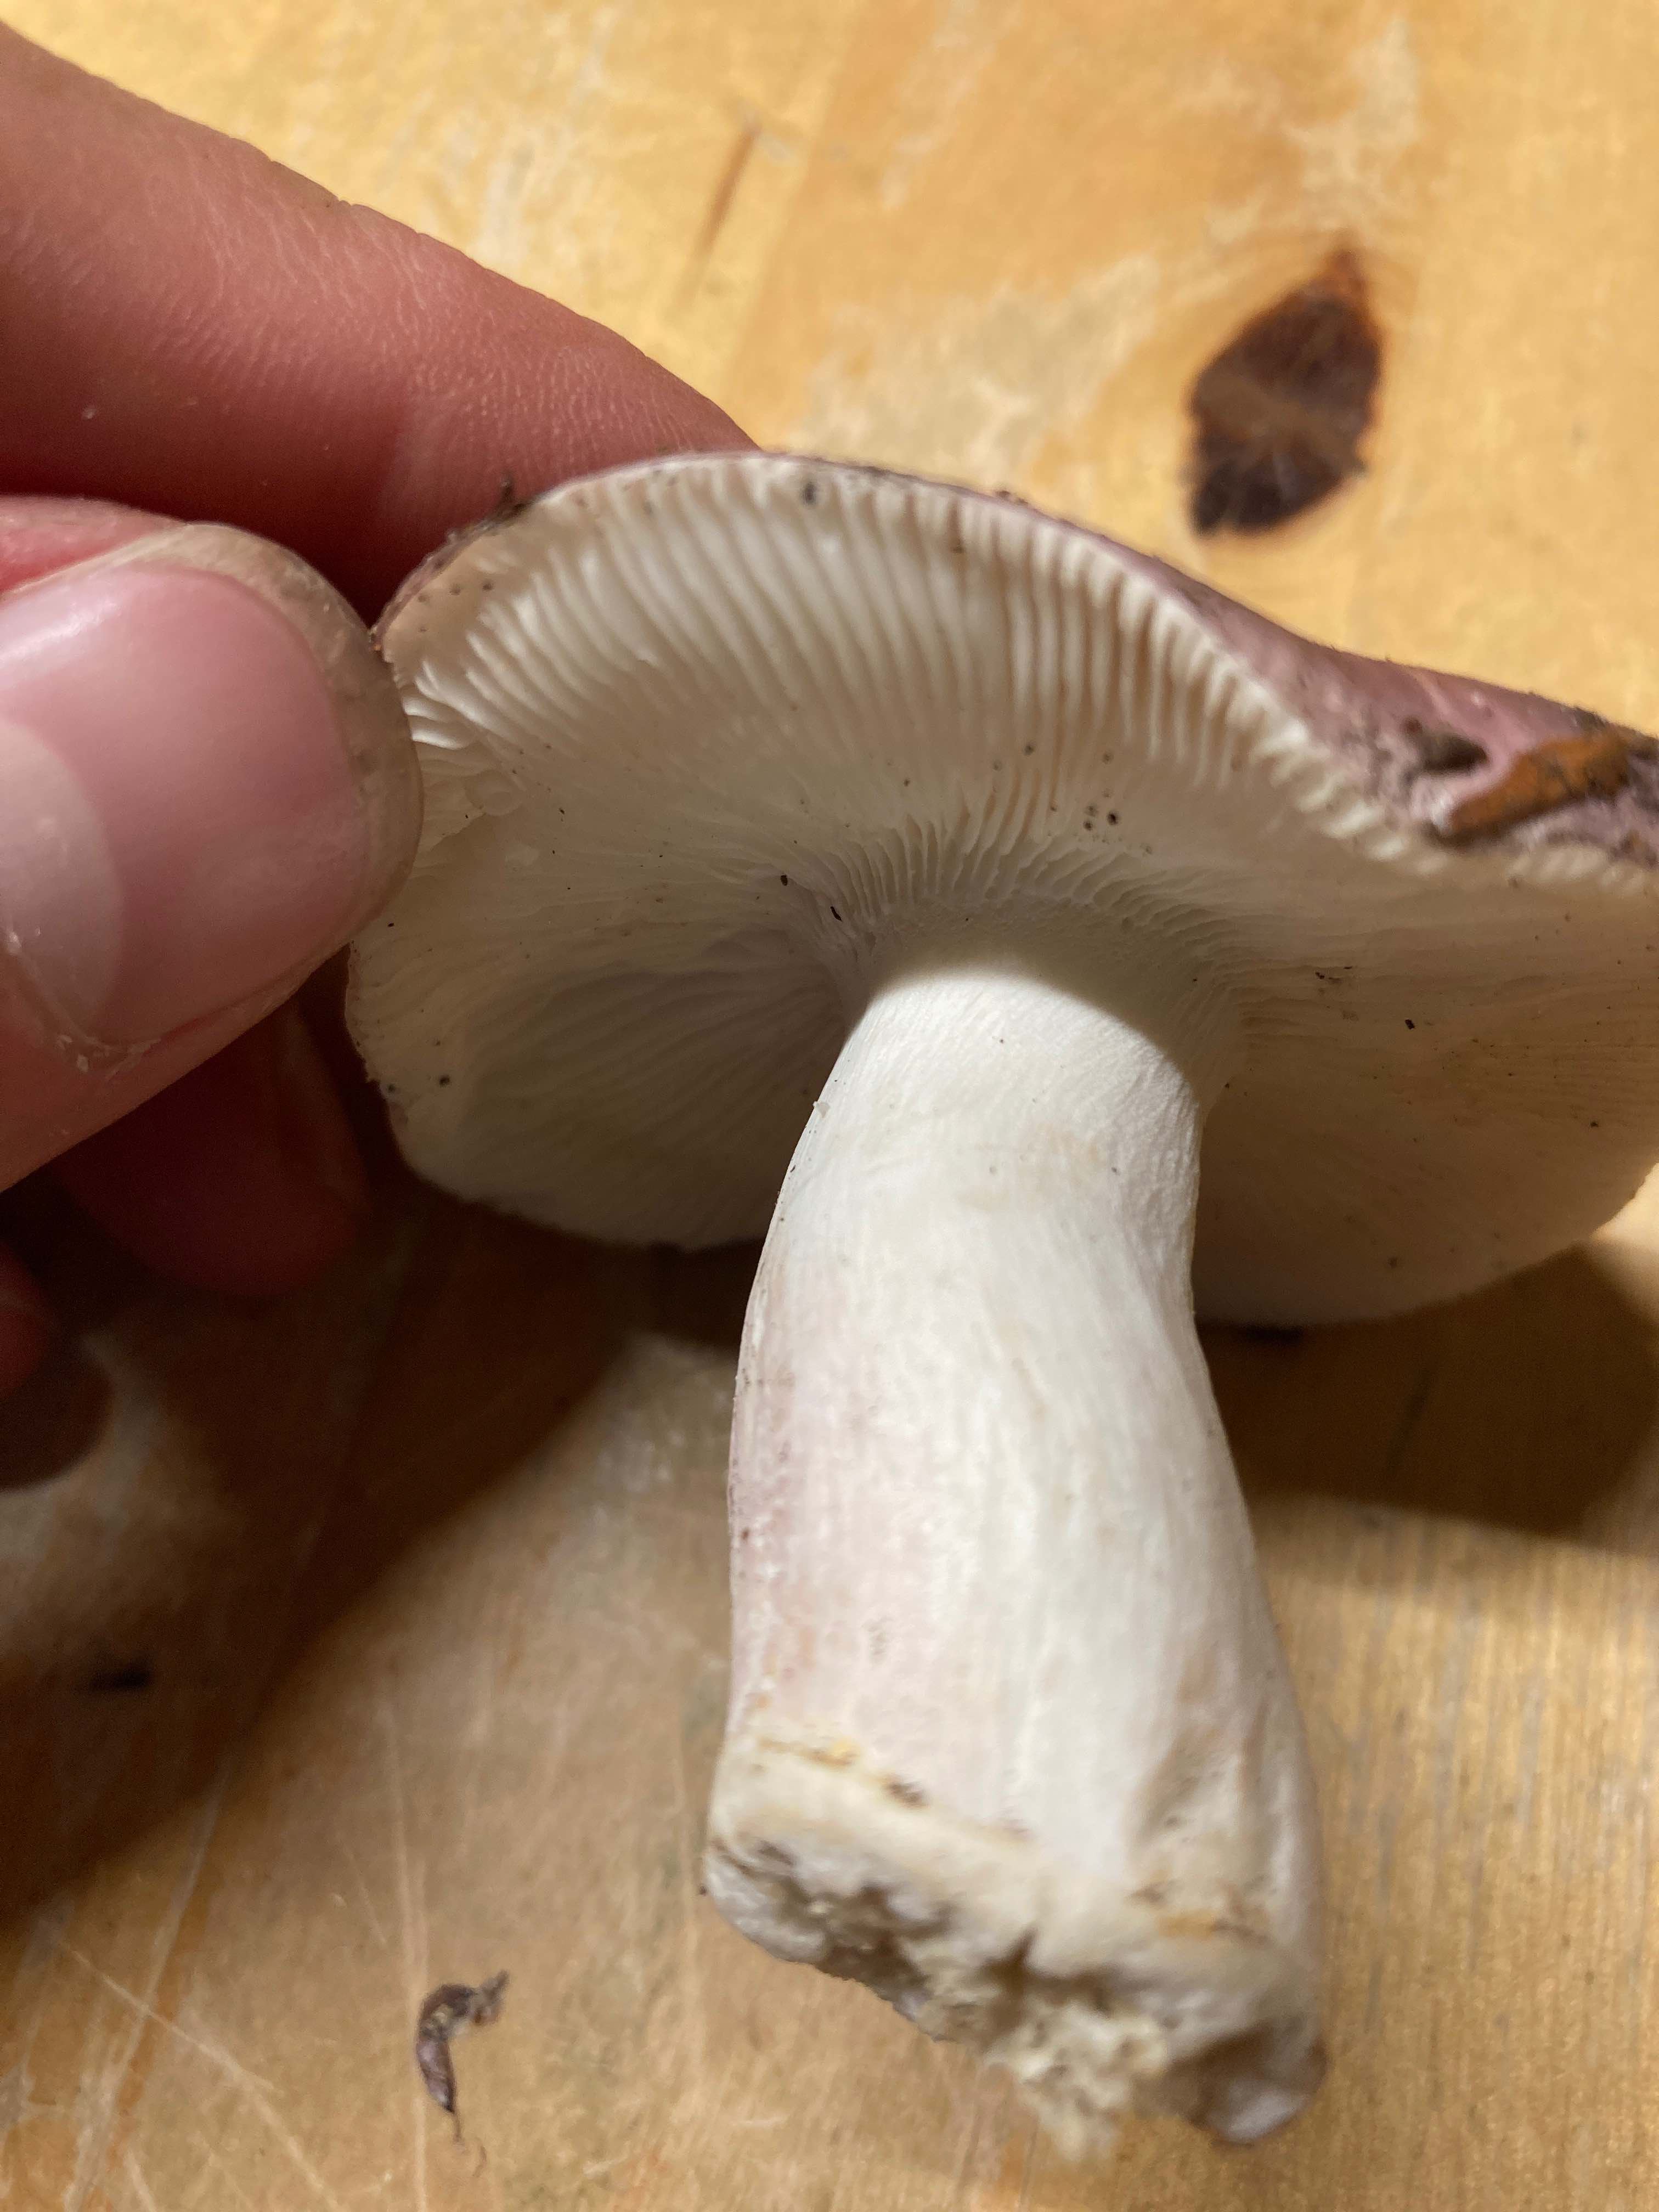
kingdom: Fungi
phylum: Basidiomycota
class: Agaricomycetes
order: Russulales
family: Russulaceae
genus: Russula
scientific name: Russula cyanoxantha
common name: broget skørhat
